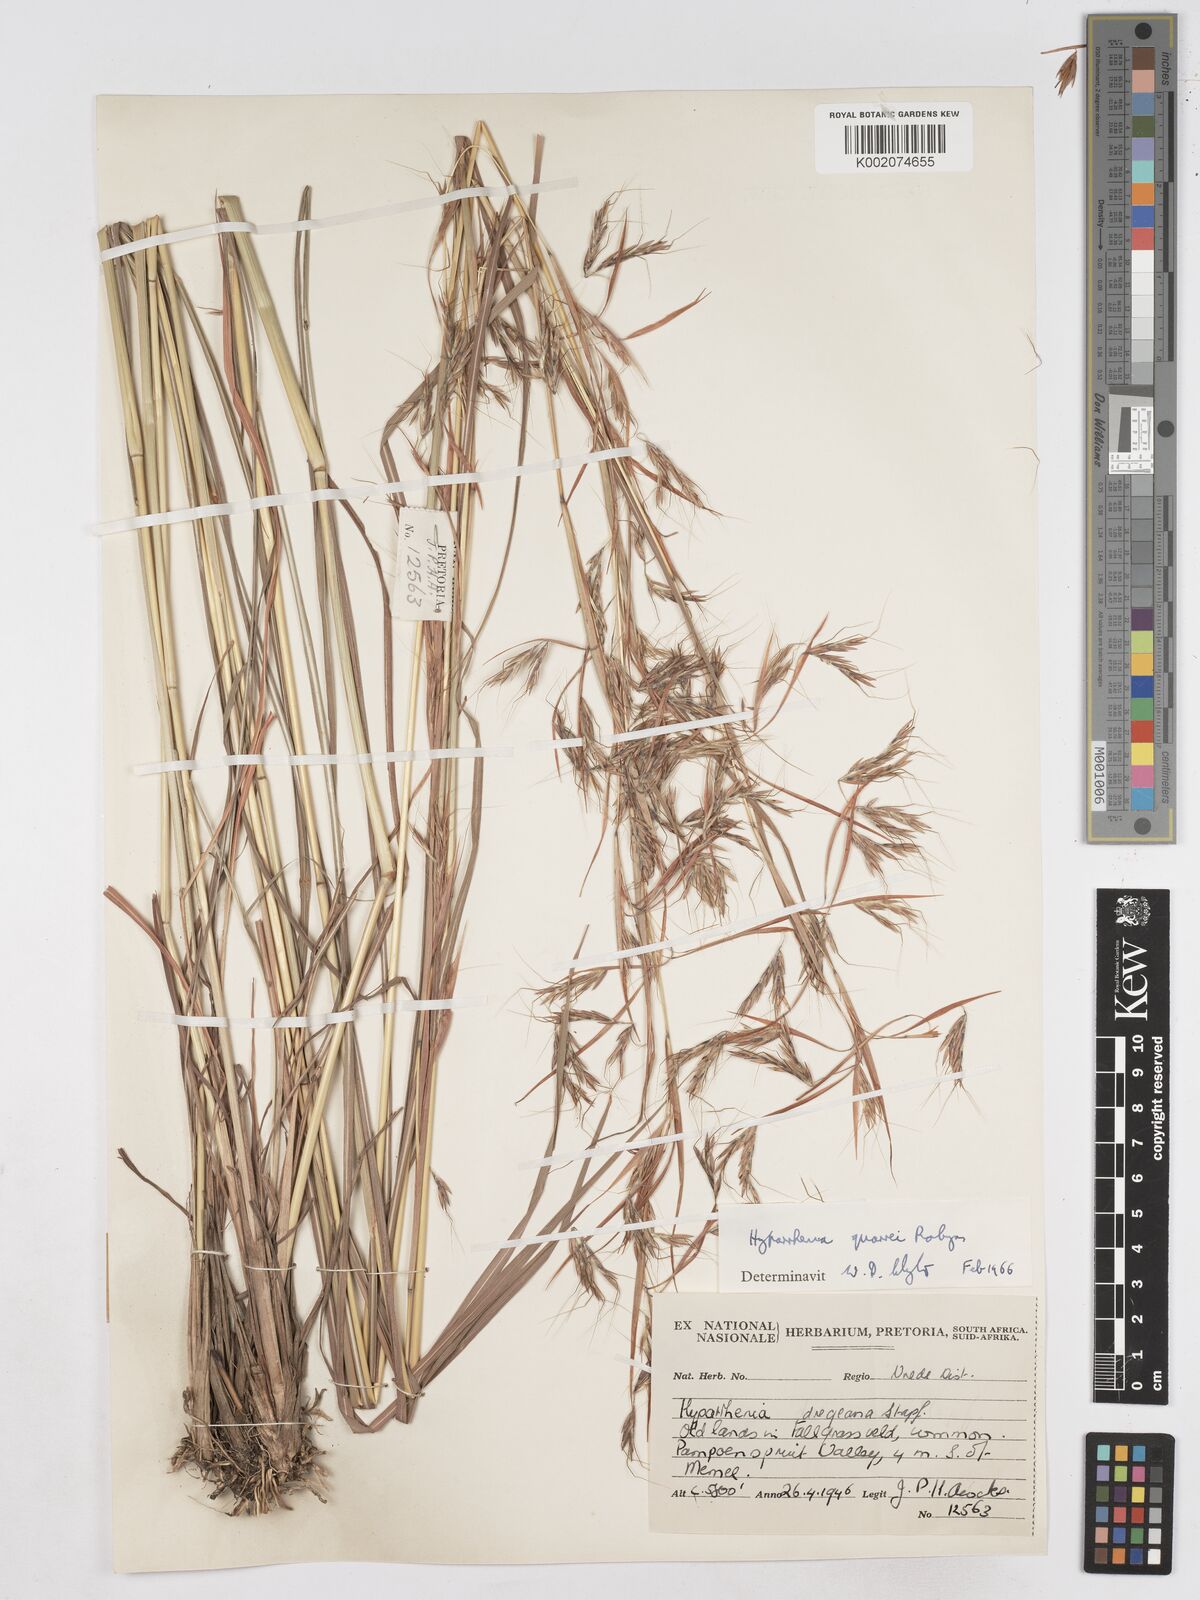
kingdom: Plantae
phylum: Tracheophyta
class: Liliopsida
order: Poales
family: Poaceae
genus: Hyparrhenia
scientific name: Hyparrhenia quarrei
